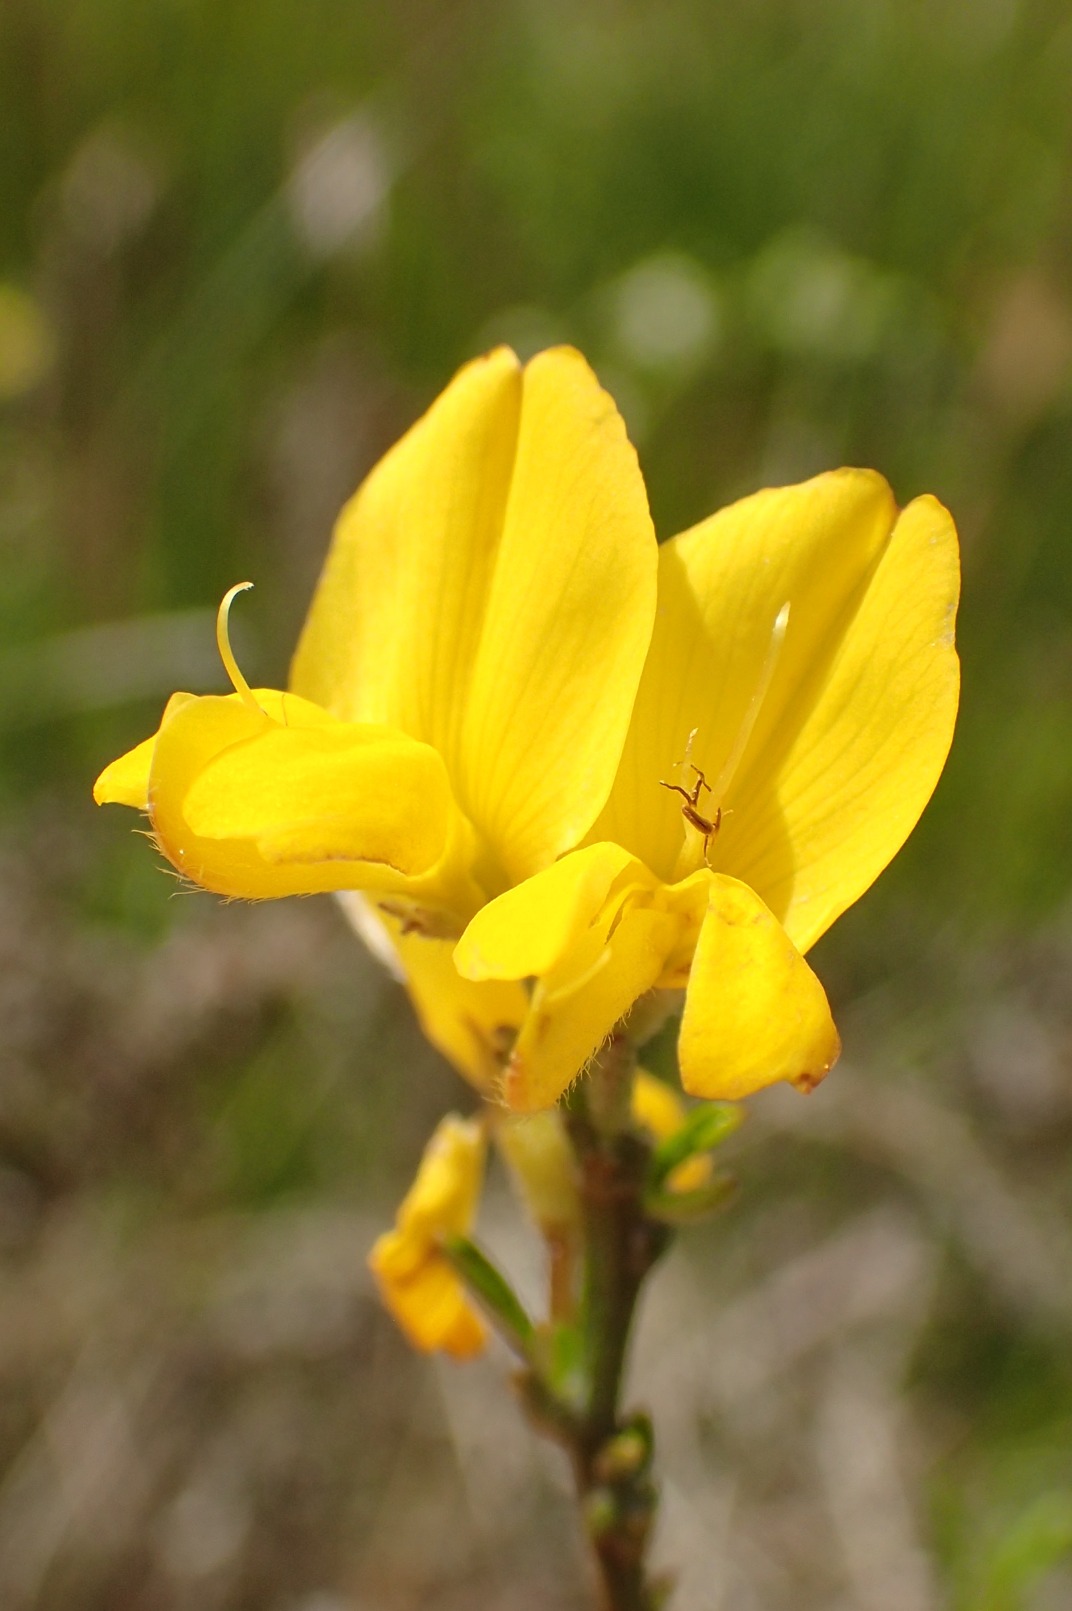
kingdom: Plantae
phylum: Tracheophyta
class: Magnoliopsida
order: Fabales
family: Fabaceae
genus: Genista
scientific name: Genista pilosa
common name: Håret visse
